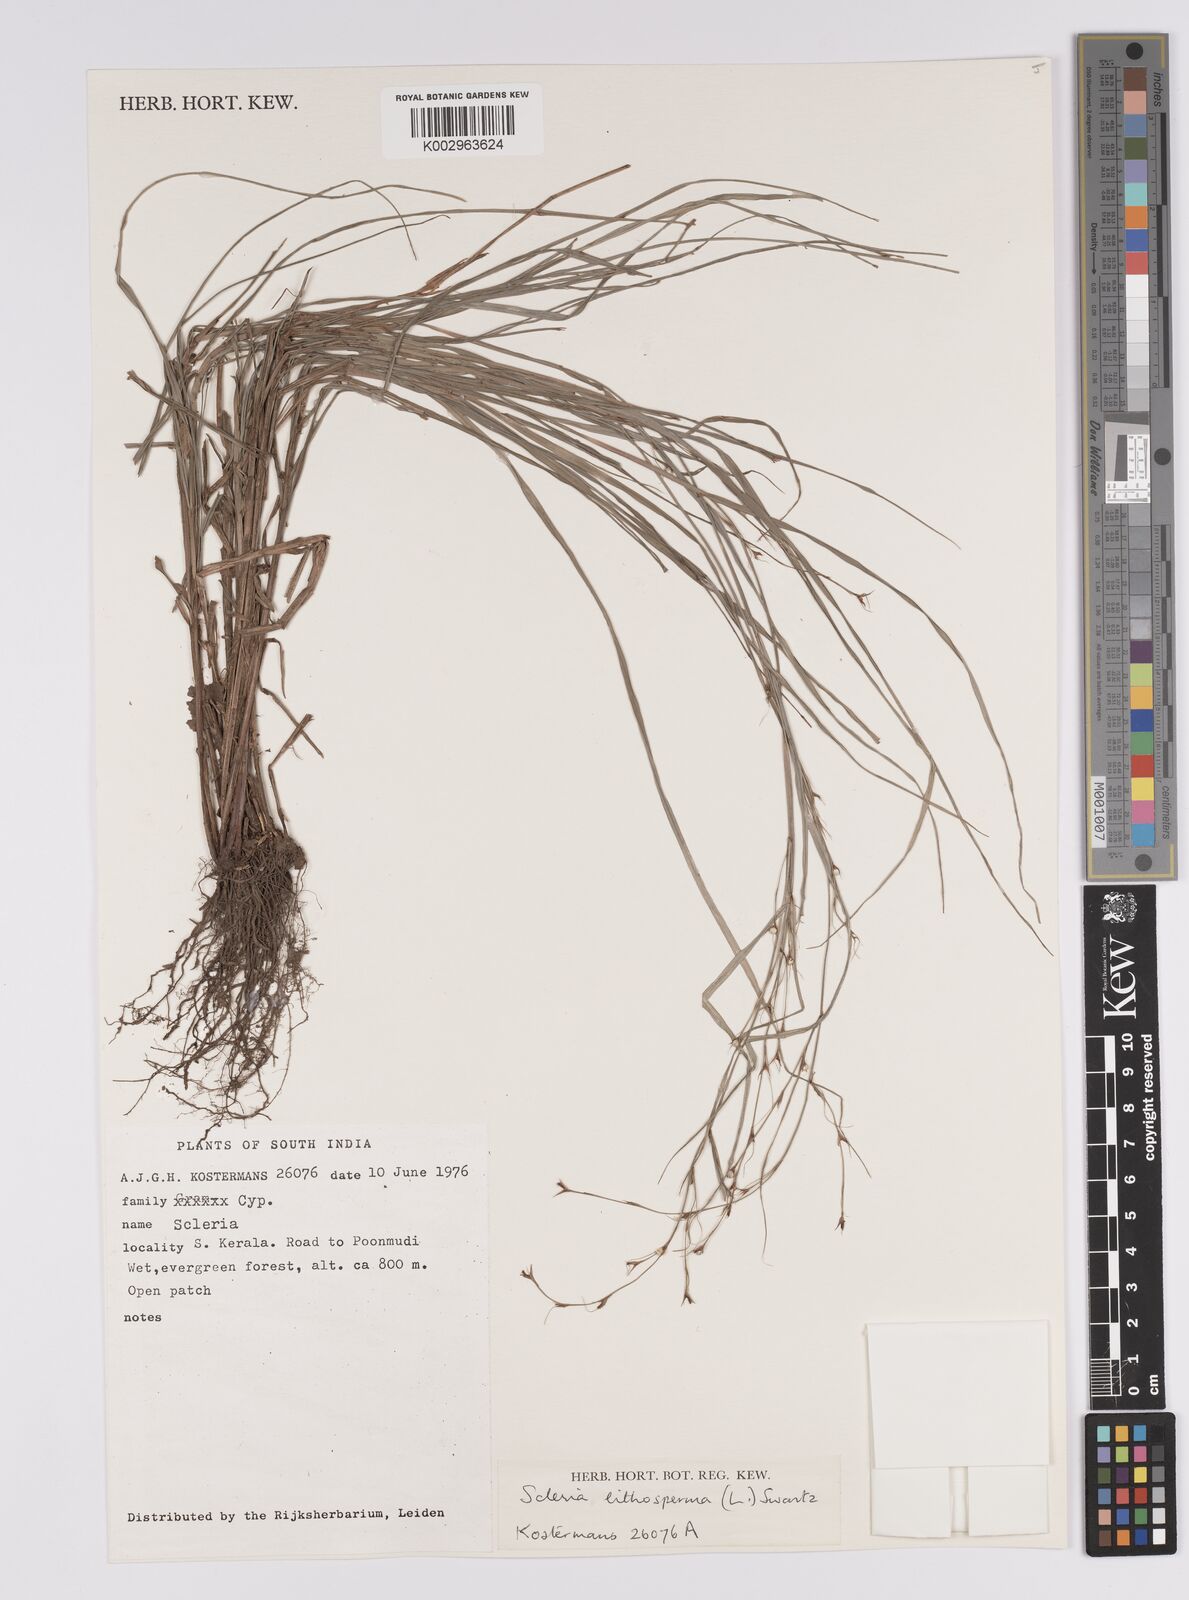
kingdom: Plantae
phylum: Tracheophyta
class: Liliopsida
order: Poales
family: Cyperaceae
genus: Scleria
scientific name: Scleria lithosperma
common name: Florida keys nut-rush
